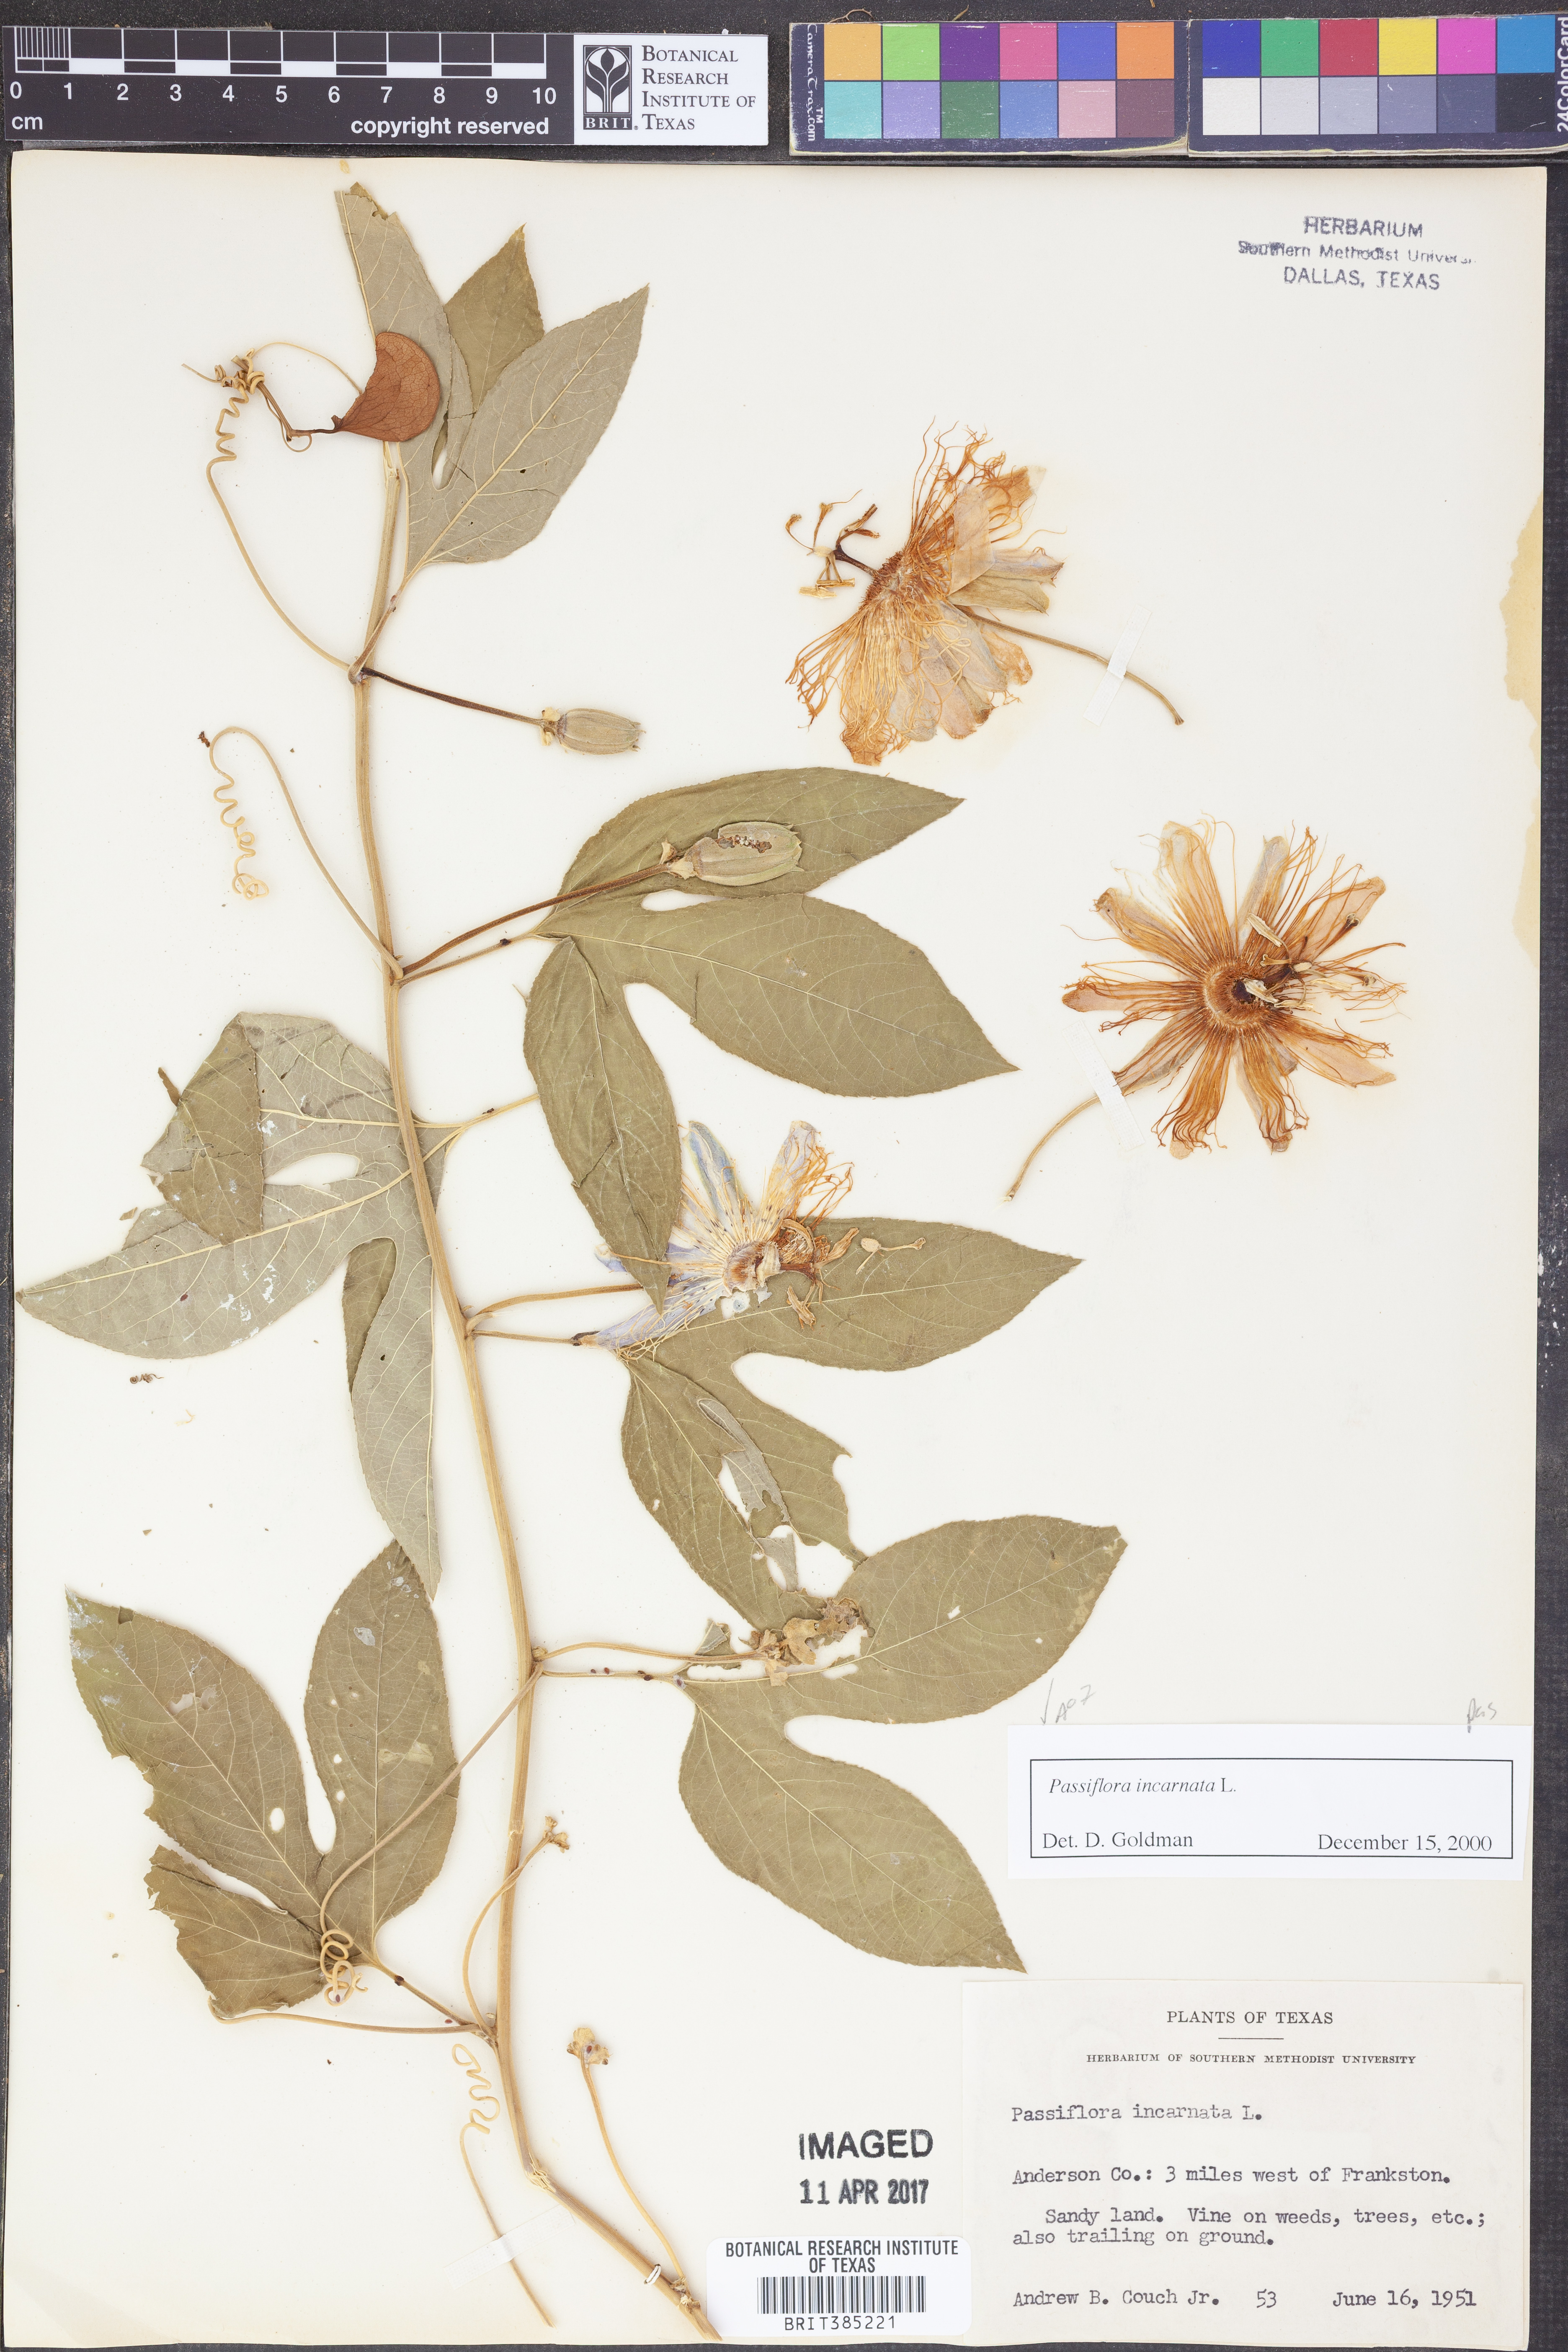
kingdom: Plantae
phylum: Tracheophyta
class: Magnoliopsida
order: Malpighiales
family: Passifloraceae
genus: Passiflora
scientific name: Passiflora incarnata
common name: Apricot-vine
